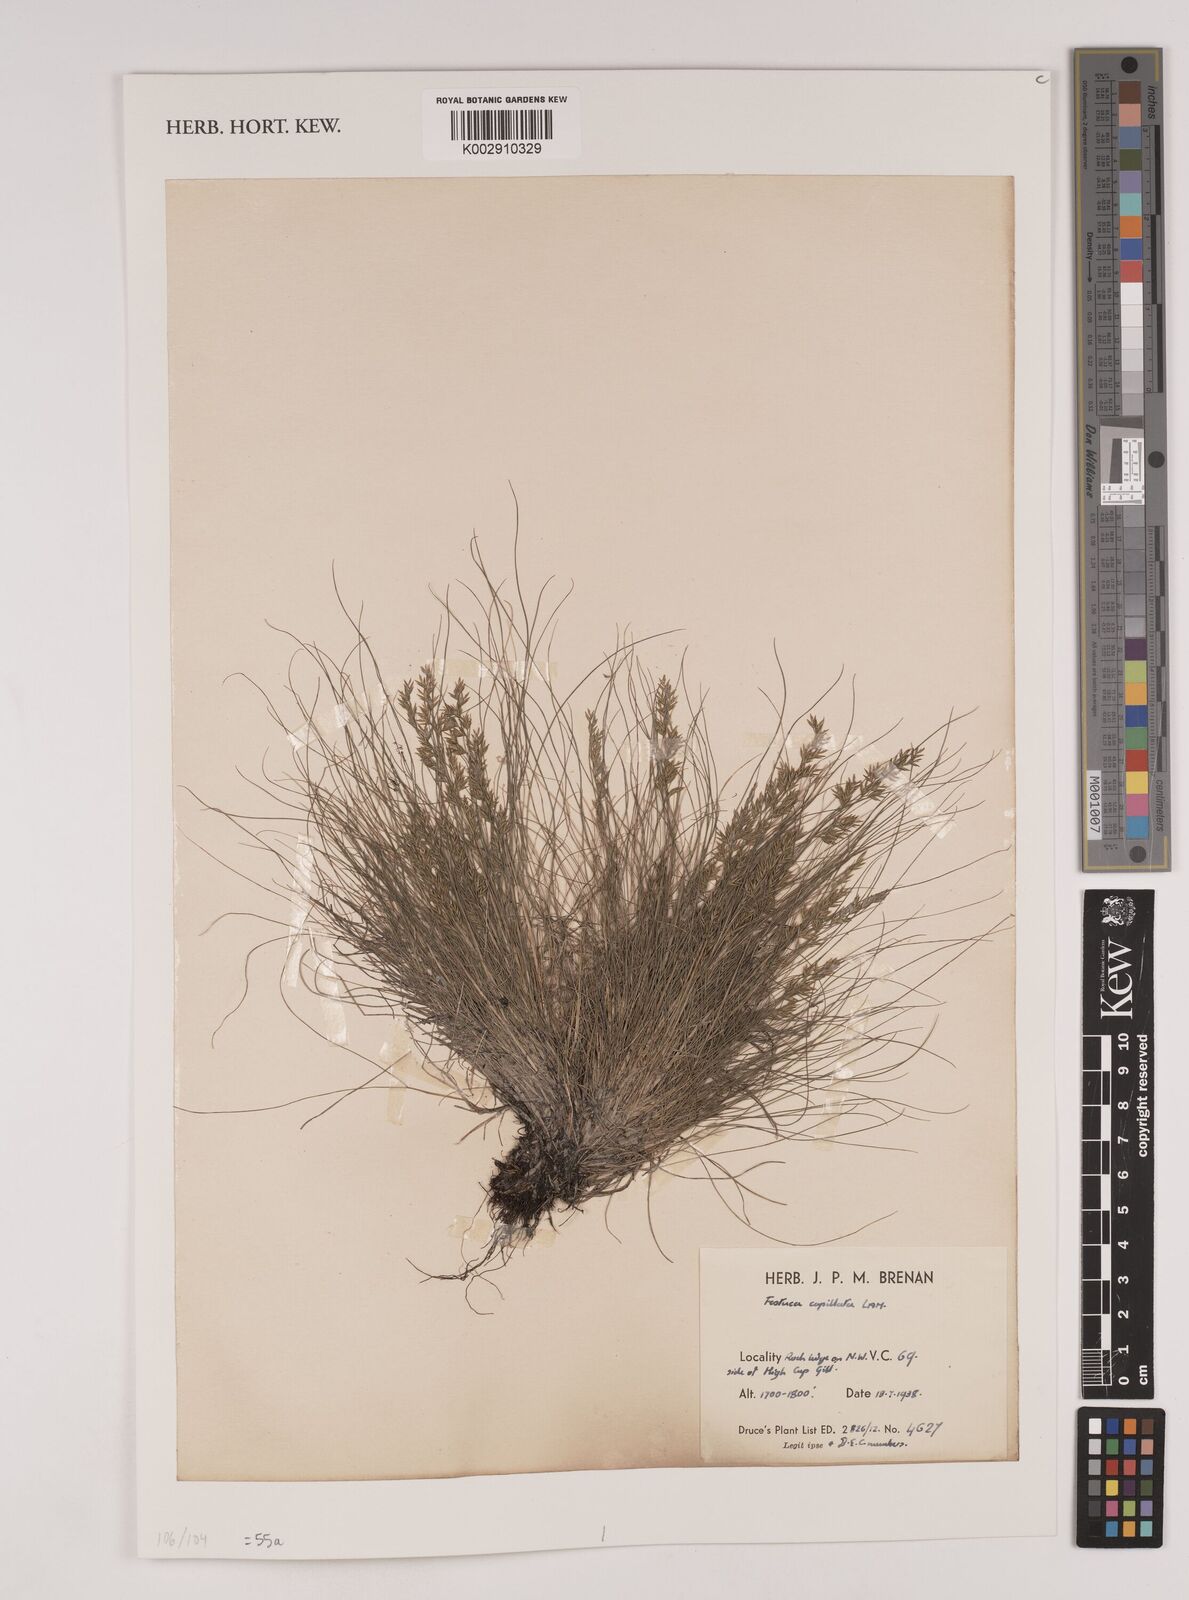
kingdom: Plantae
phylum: Tracheophyta
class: Liliopsida
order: Poales
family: Poaceae
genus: Festuca
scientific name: Festuca amethystina
